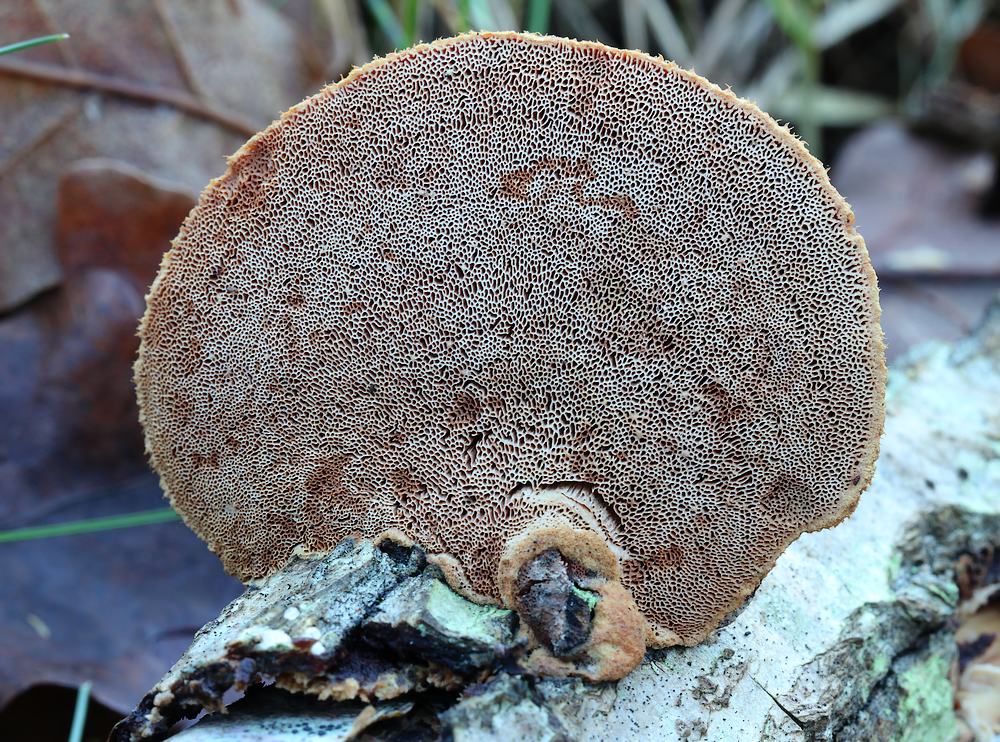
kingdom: Fungi
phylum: Basidiomycota
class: Agaricomycetes
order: Polyporales
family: Phanerochaetaceae
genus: Hapalopilus
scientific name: Hapalopilus rutilans
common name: rødlig okkerporesvamp
